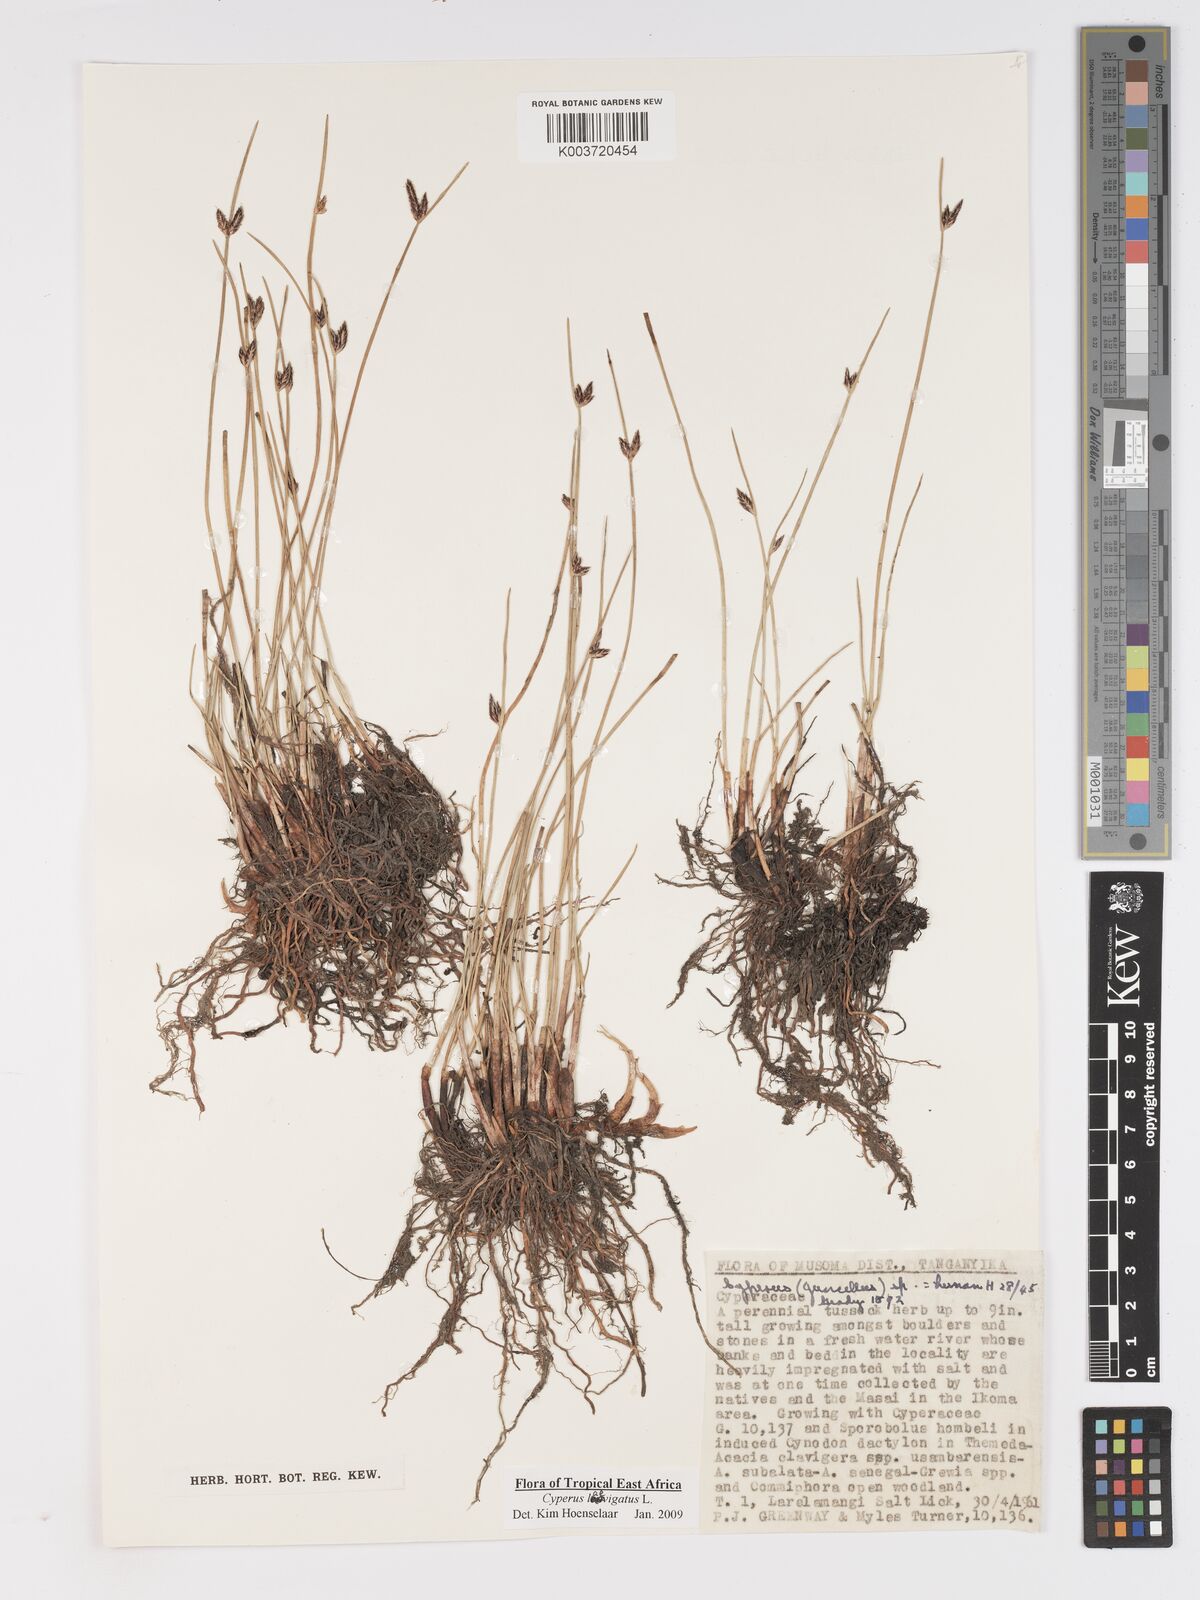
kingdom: Plantae
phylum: Tracheophyta
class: Liliopsida
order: Poales
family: Cyperaceae
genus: Cyperus
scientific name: Cyperus laevigatus
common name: Smooth flat sedge
